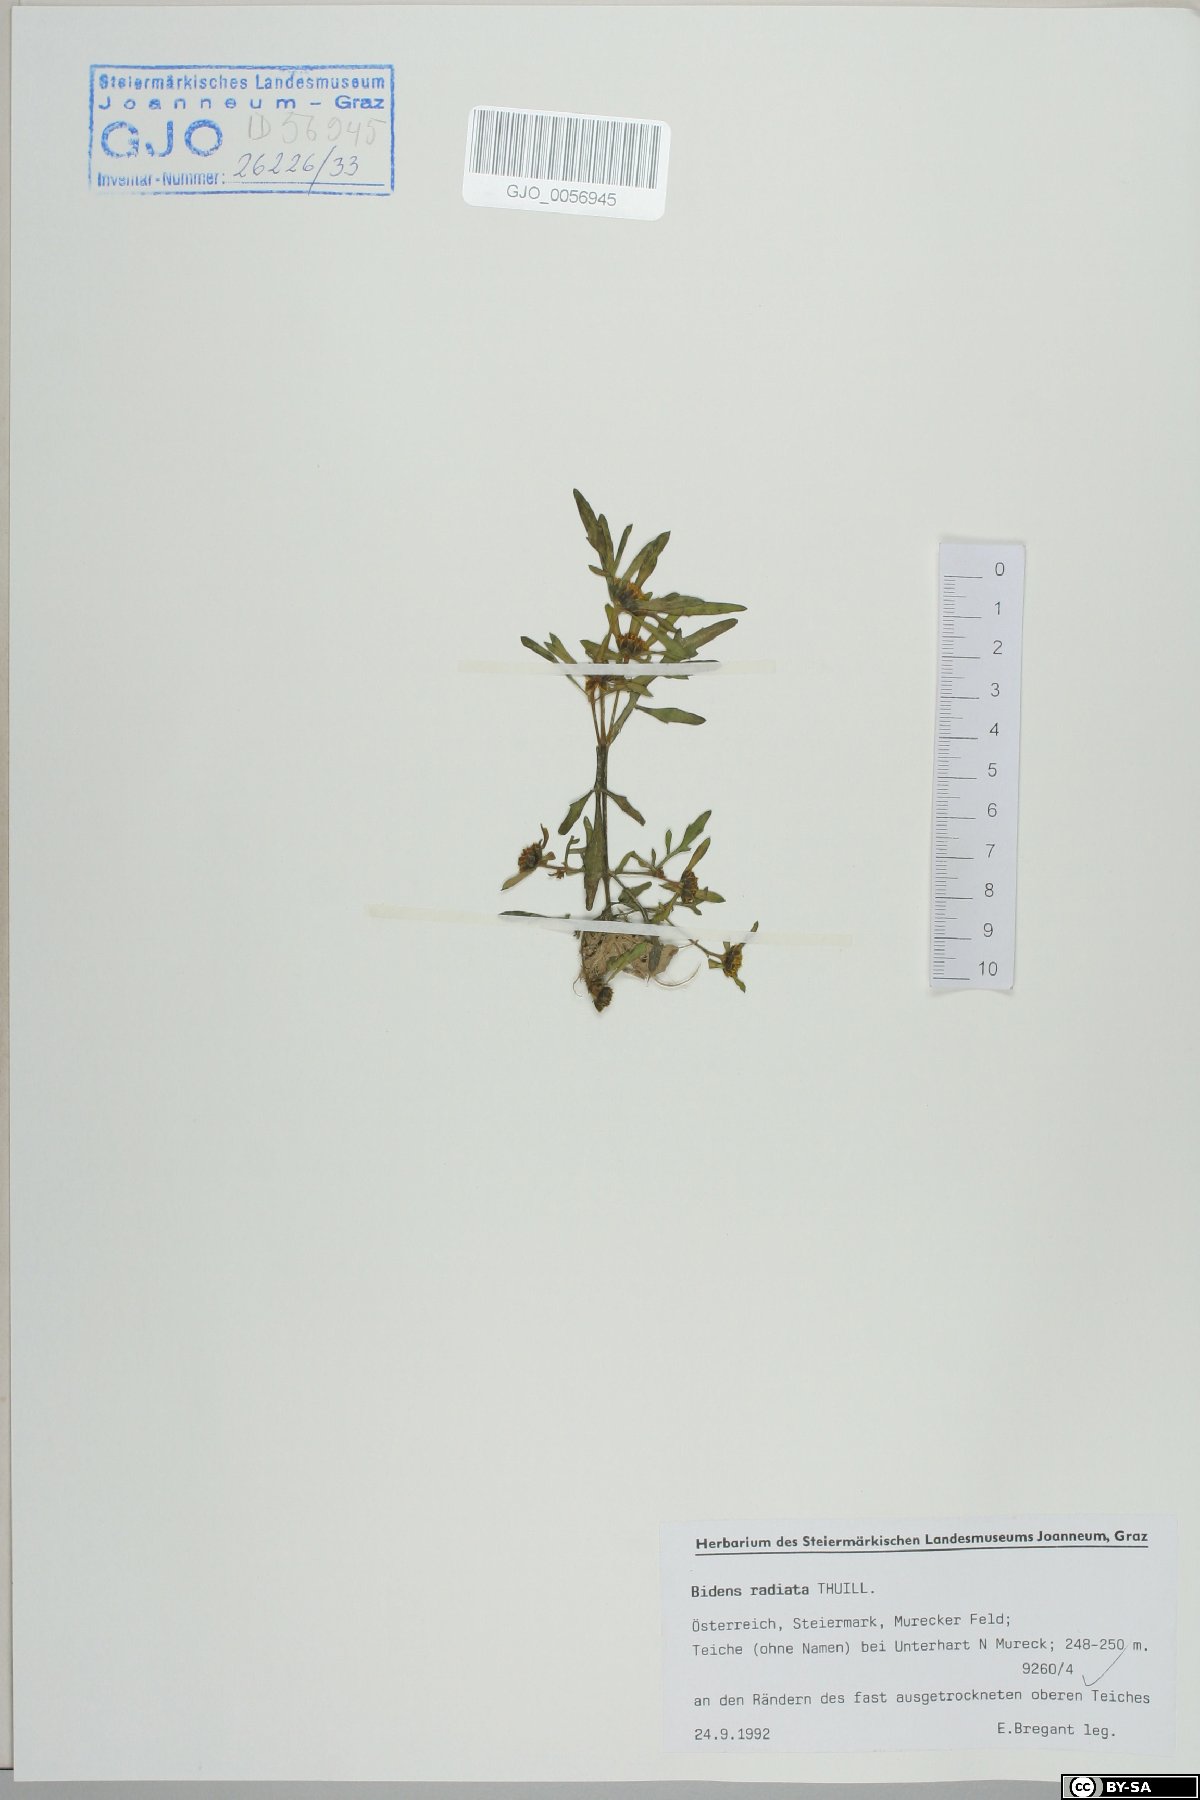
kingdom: Plantae
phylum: Tracheophyta
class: Magnoliopsida
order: Asterales
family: Asteraceae
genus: Bidens
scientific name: Bidens radiata
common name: Radiating bur-marigold
